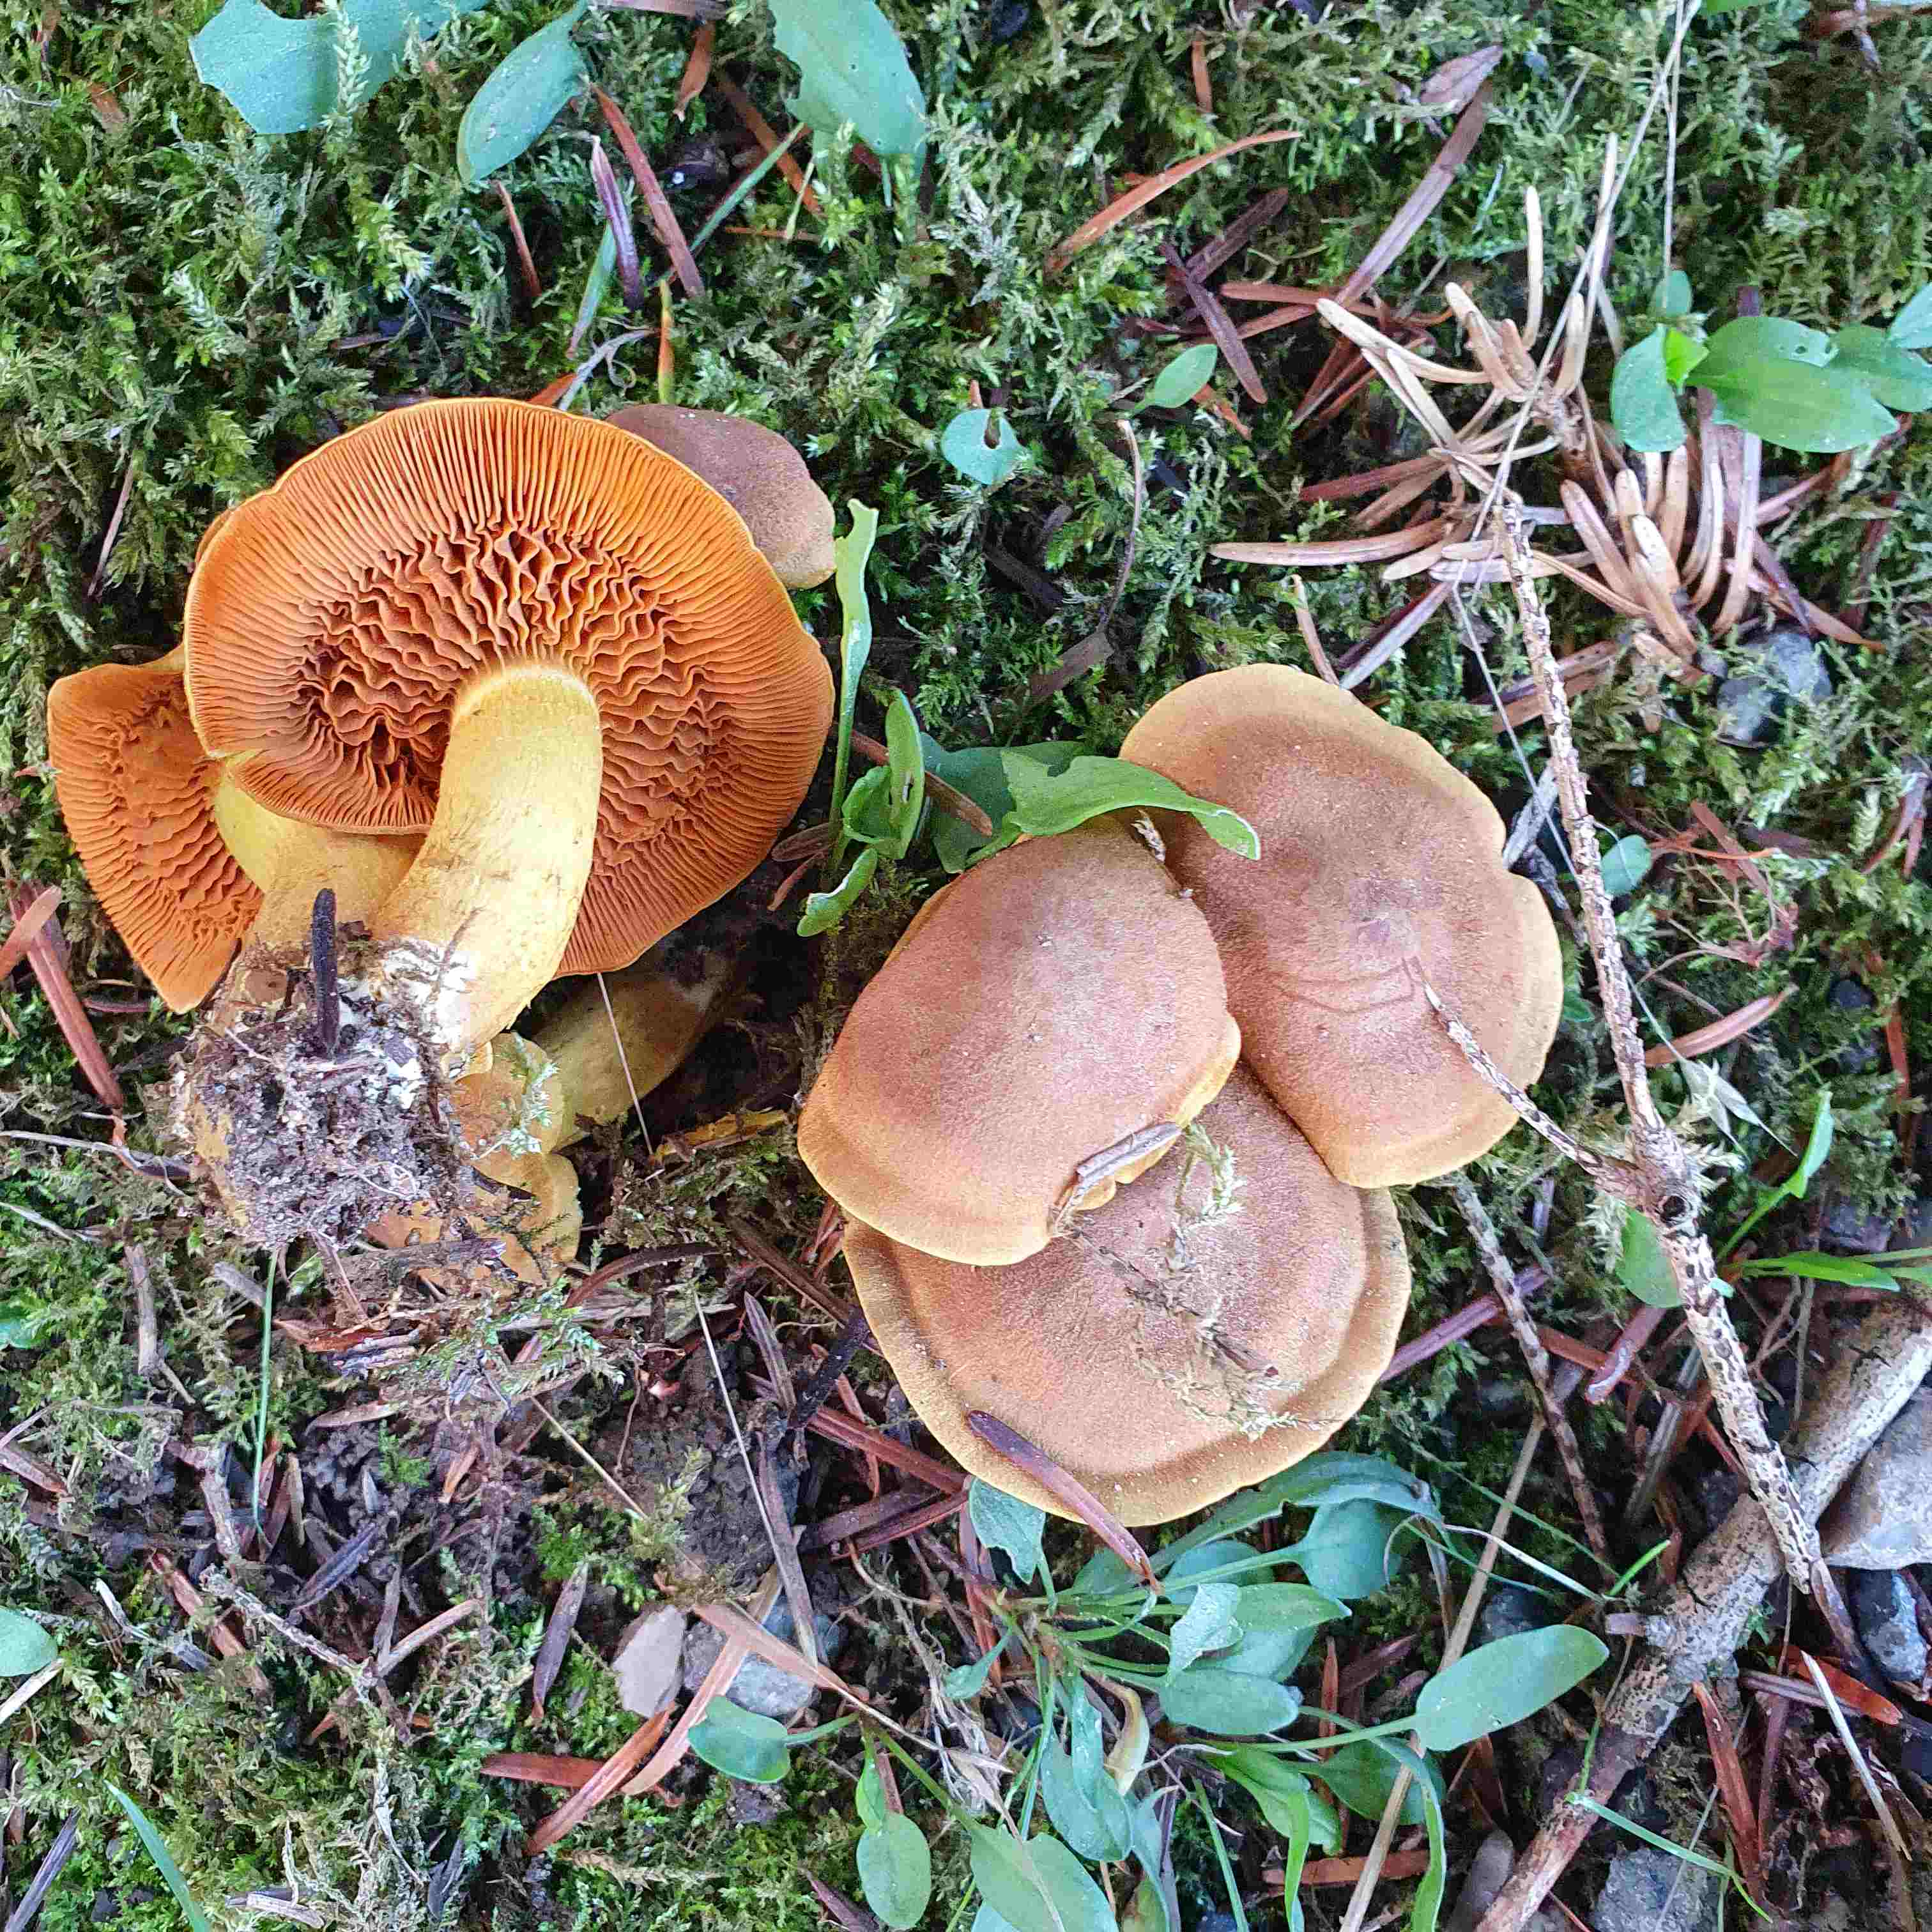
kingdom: Fungi
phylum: Basidiomycota
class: Agaricomycetes
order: Agaricales
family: Cortinariaceae
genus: Cortinarius
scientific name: Cortinarius malicorius
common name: grønkødet slørhat
